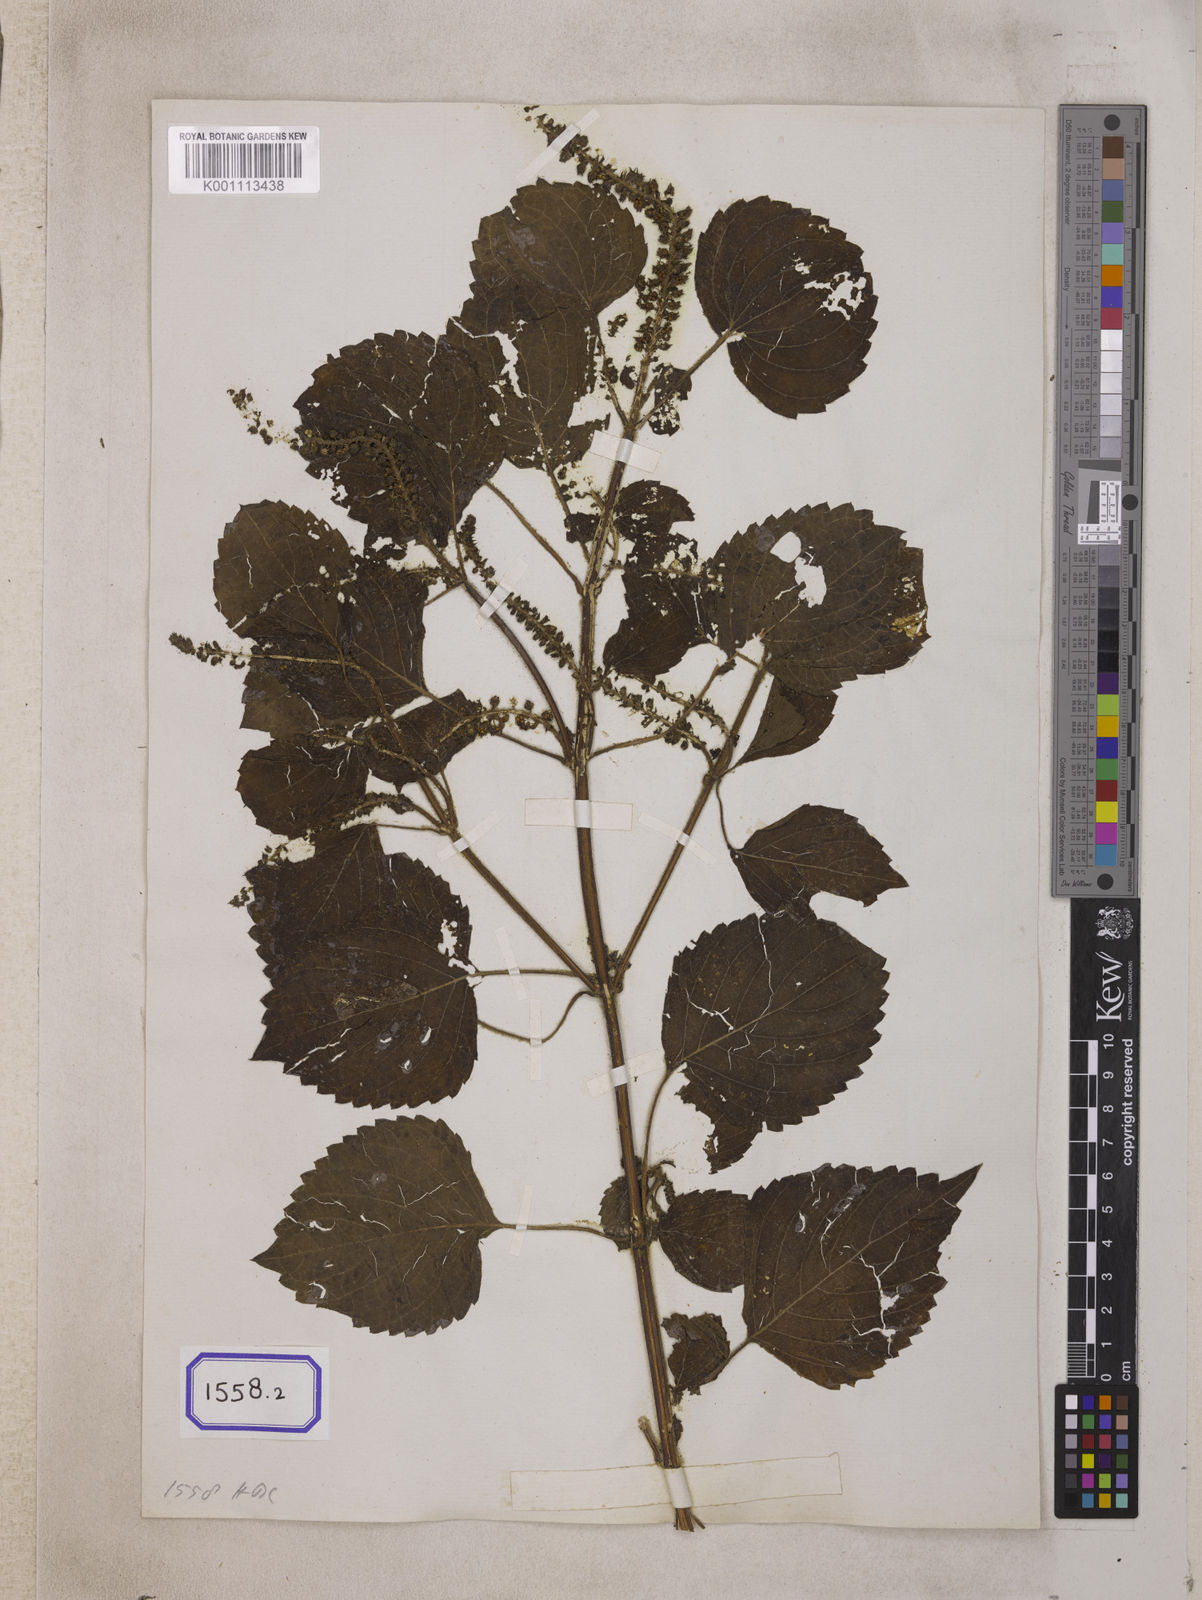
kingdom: Plantae
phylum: Tracheophyta
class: Magnoliopsida
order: Lamiales
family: Lamiaceae
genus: Perilla
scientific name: Perilla frutescens
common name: Perilla
